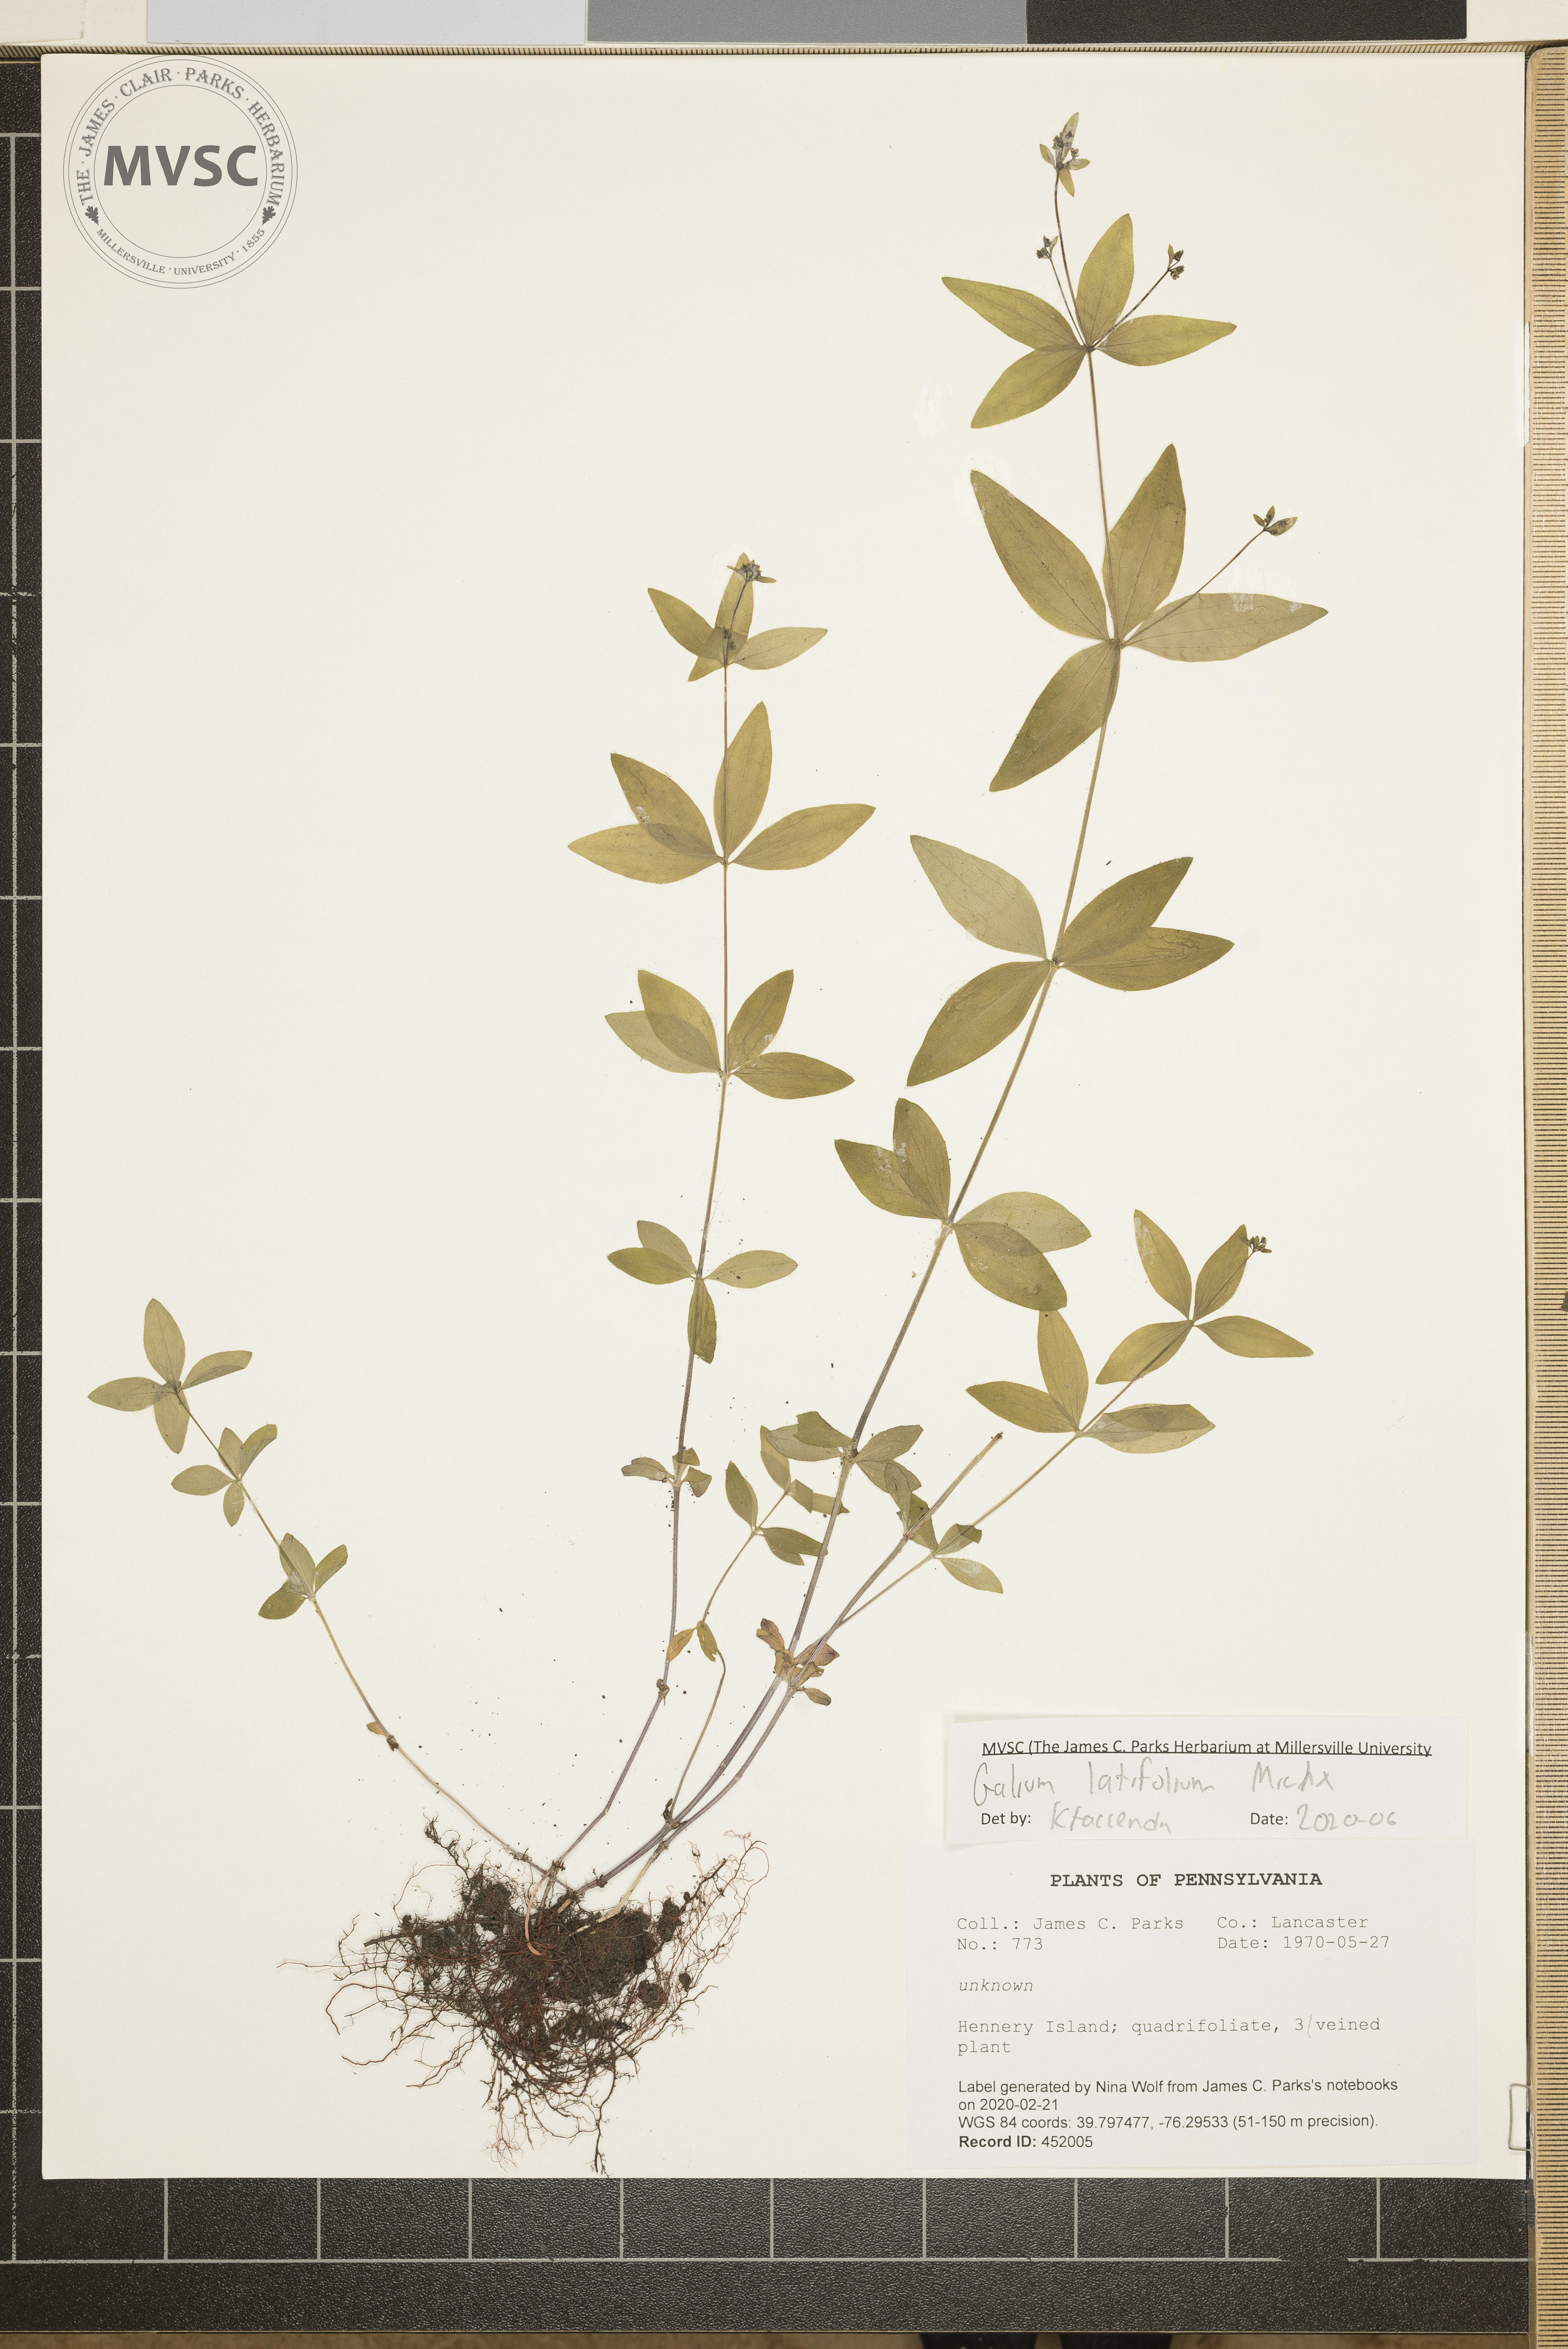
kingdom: Plantae
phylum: Tracheophyta
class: Magnoliopsida
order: Gentianales
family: Rubiaceae
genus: Galium
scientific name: Galium latifolium
